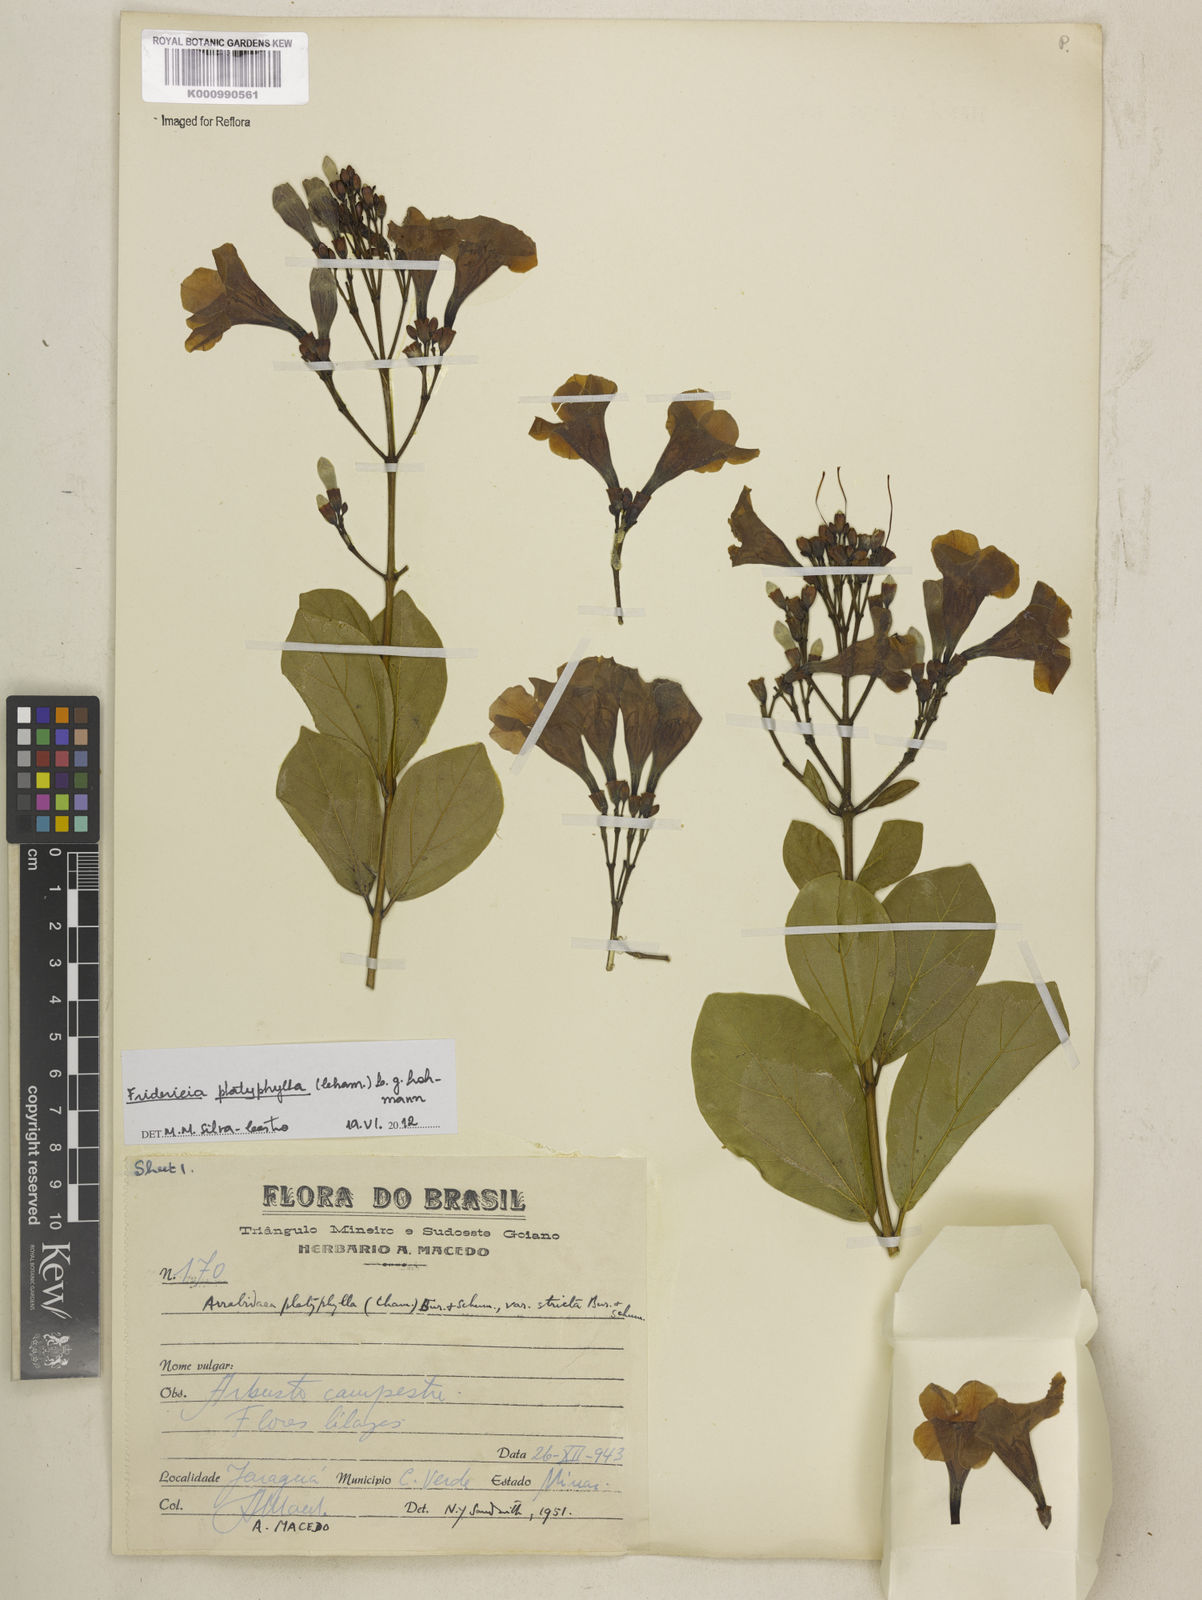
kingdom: Plantae
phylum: Tracheophyta
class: Magnoliopsida
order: Lamiales
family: Bignoniaceae
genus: Fridericia
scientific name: Fridericia platyphylla
